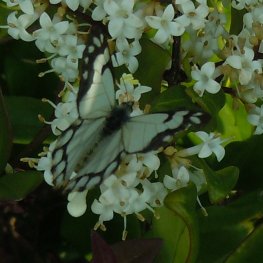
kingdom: Animalia
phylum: Arthropoda
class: Insecta
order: Lepidoptera
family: Pieridae
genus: Neophasia
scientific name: Neophasia menapia
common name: Pine White
